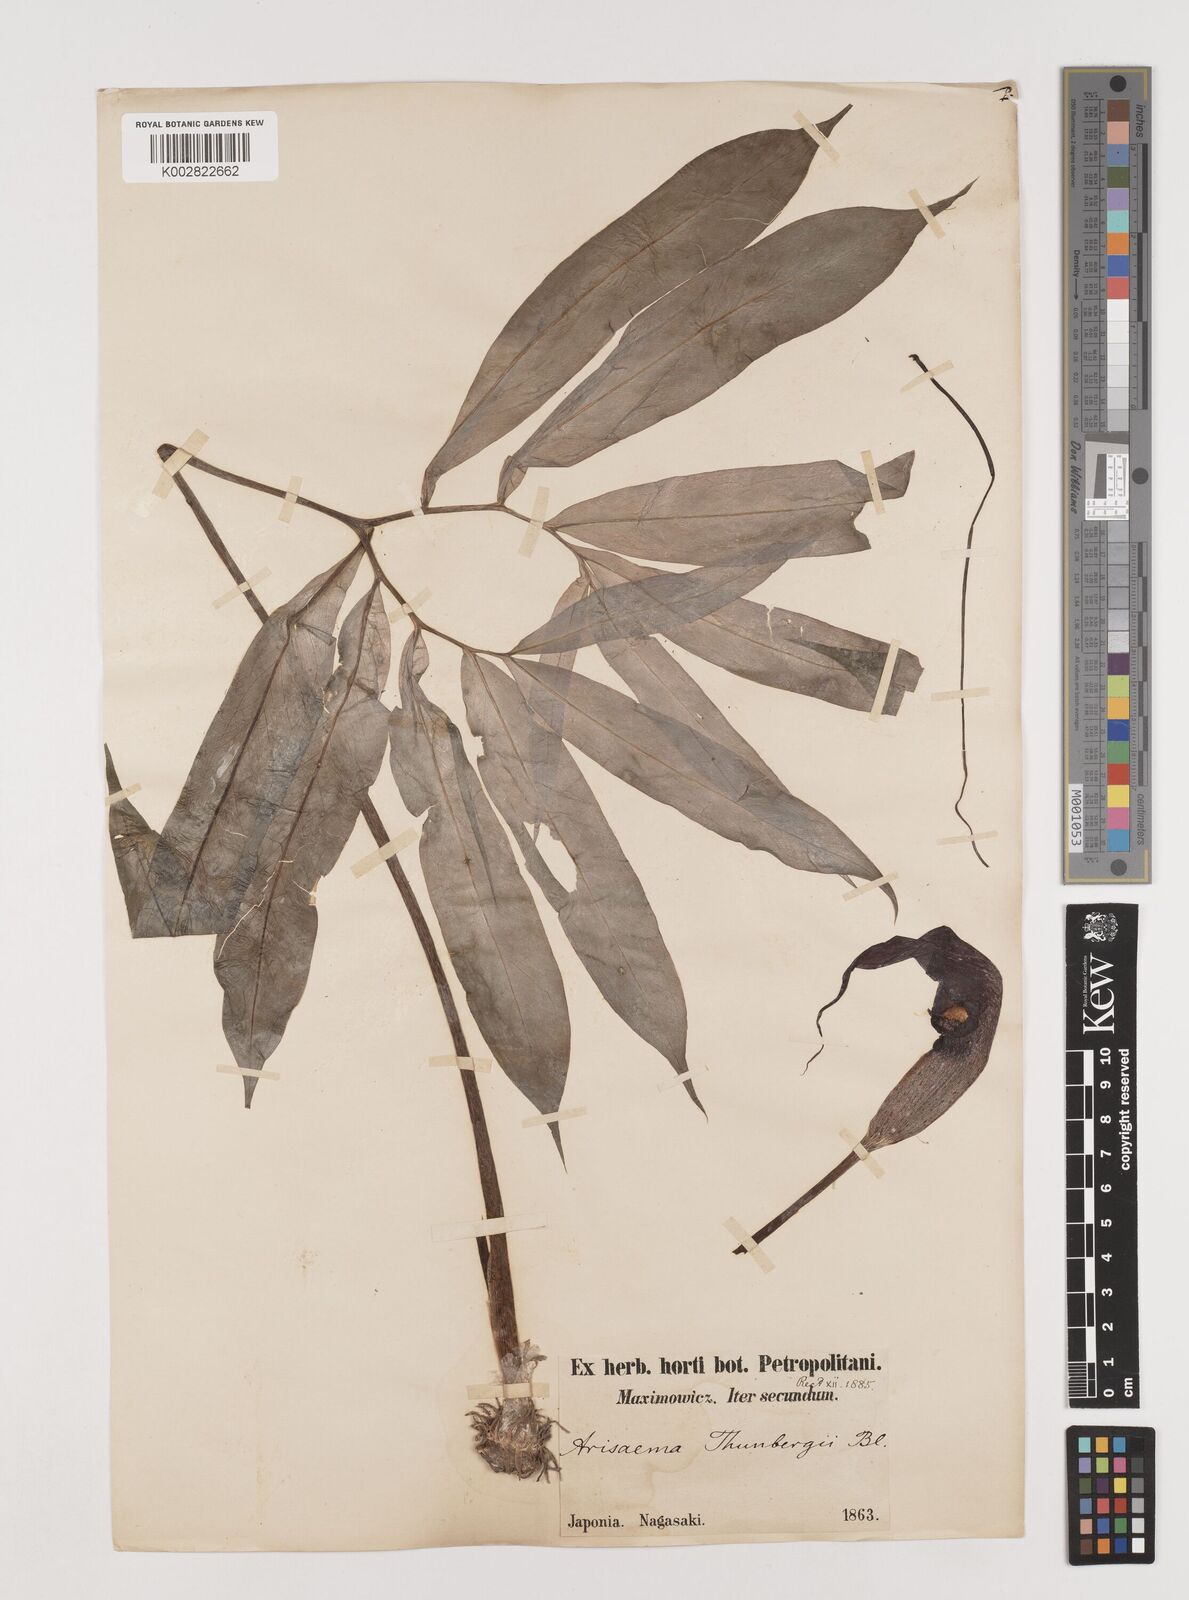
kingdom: Plantae
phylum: Tracheophyta
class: Liliopsida
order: Alismatales
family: Araceae
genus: Arisaema
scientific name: Arisaema thunbergii
